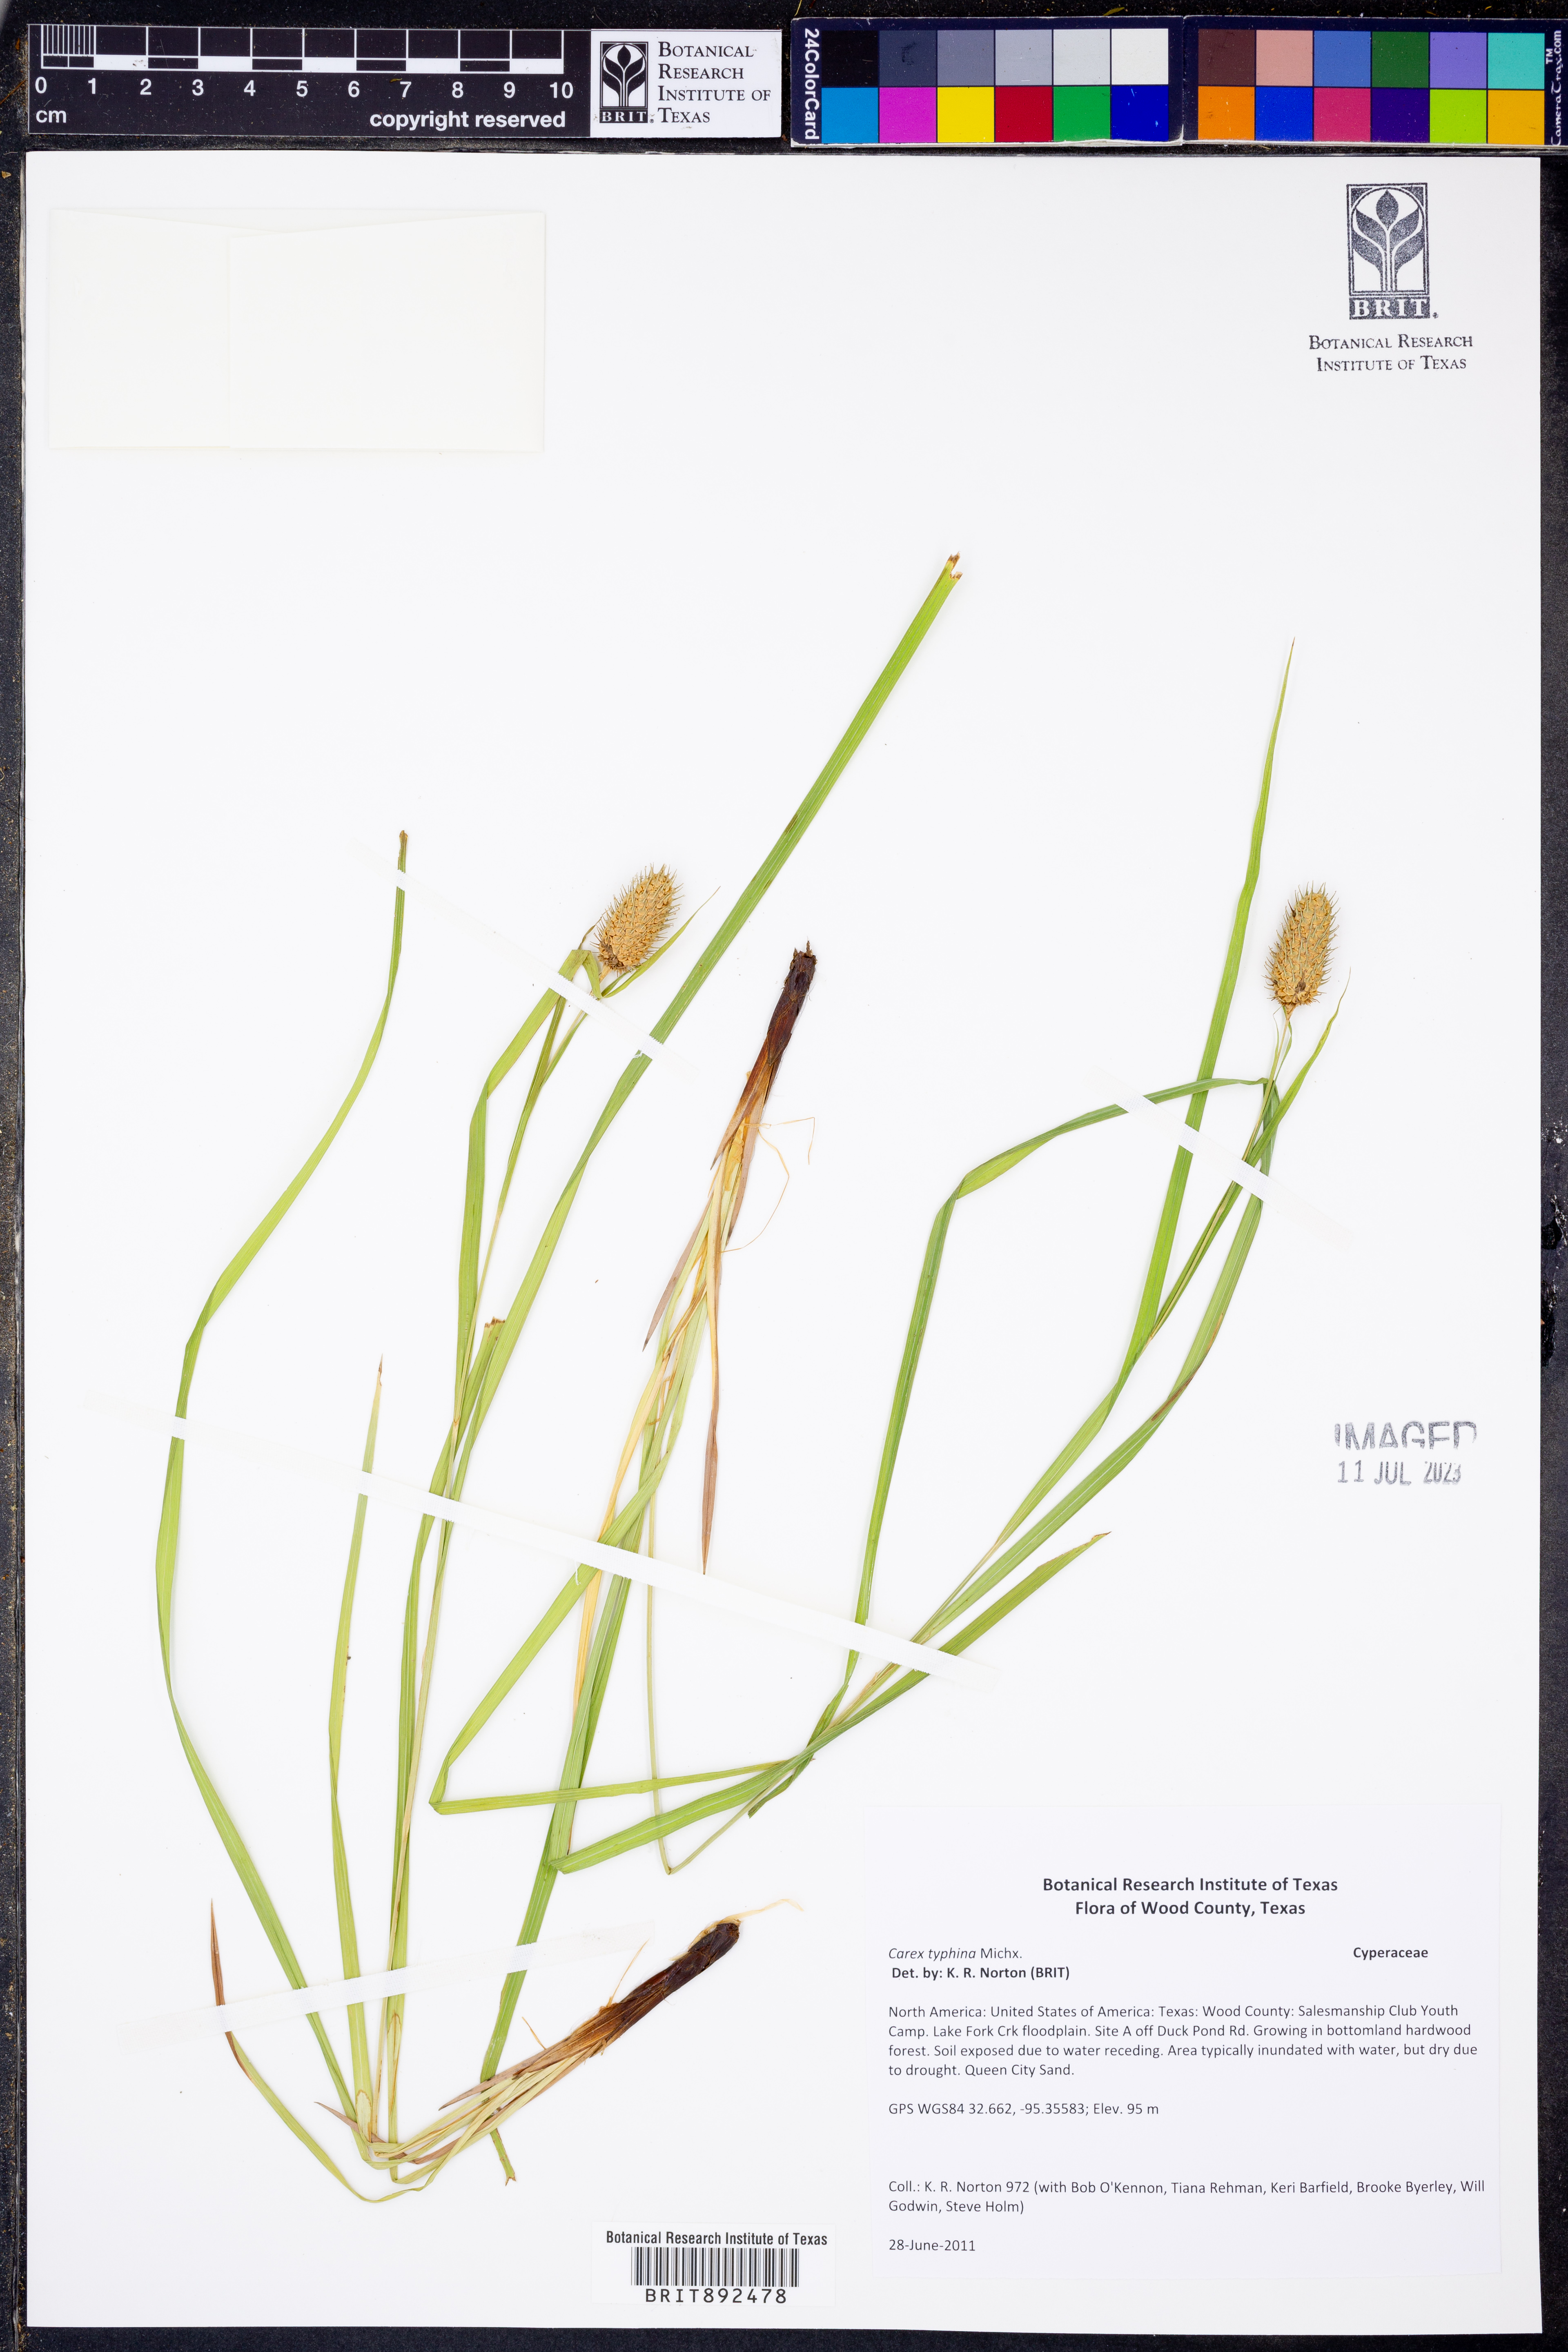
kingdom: Plantae
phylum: Tracheophyta
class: Liliopsida
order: Poales
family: Cyperaceae
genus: Carex
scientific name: Carex typhina
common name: Cattail sedge
